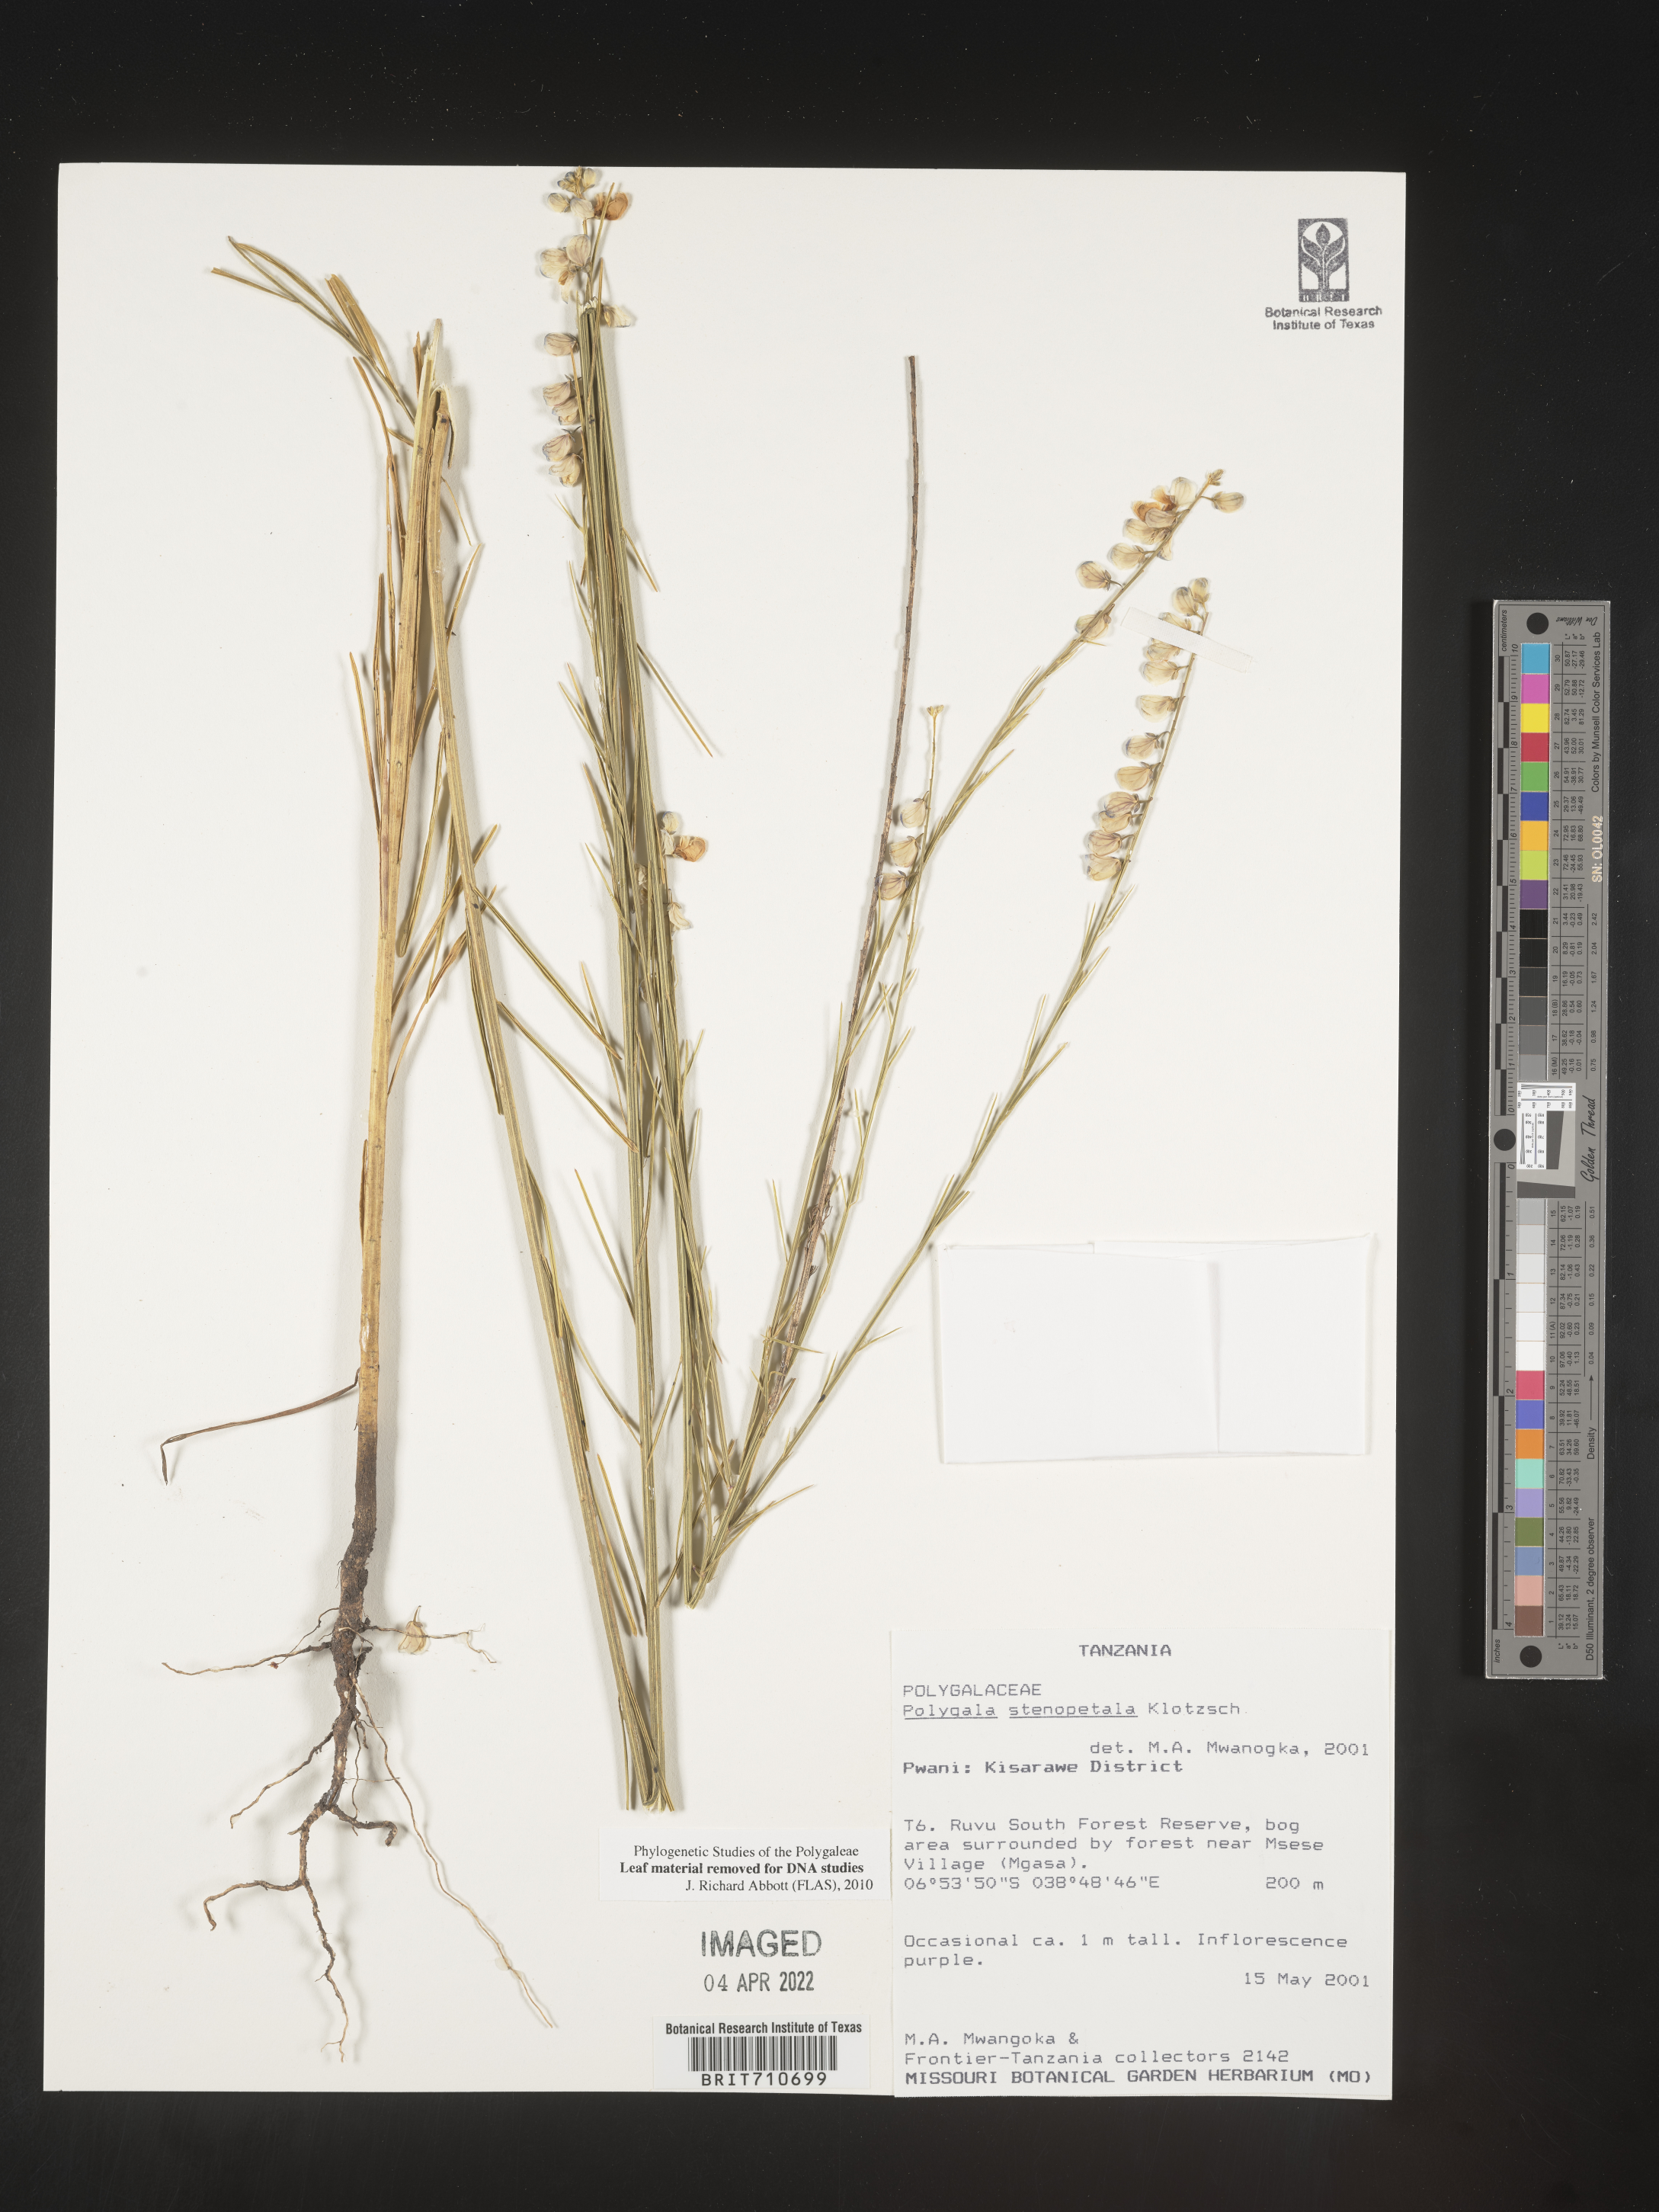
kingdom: Plantae
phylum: Tracheophyta
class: Magnoliopsida
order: Fabales
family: Polygalaceae
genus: Polygala
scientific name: Polygala
